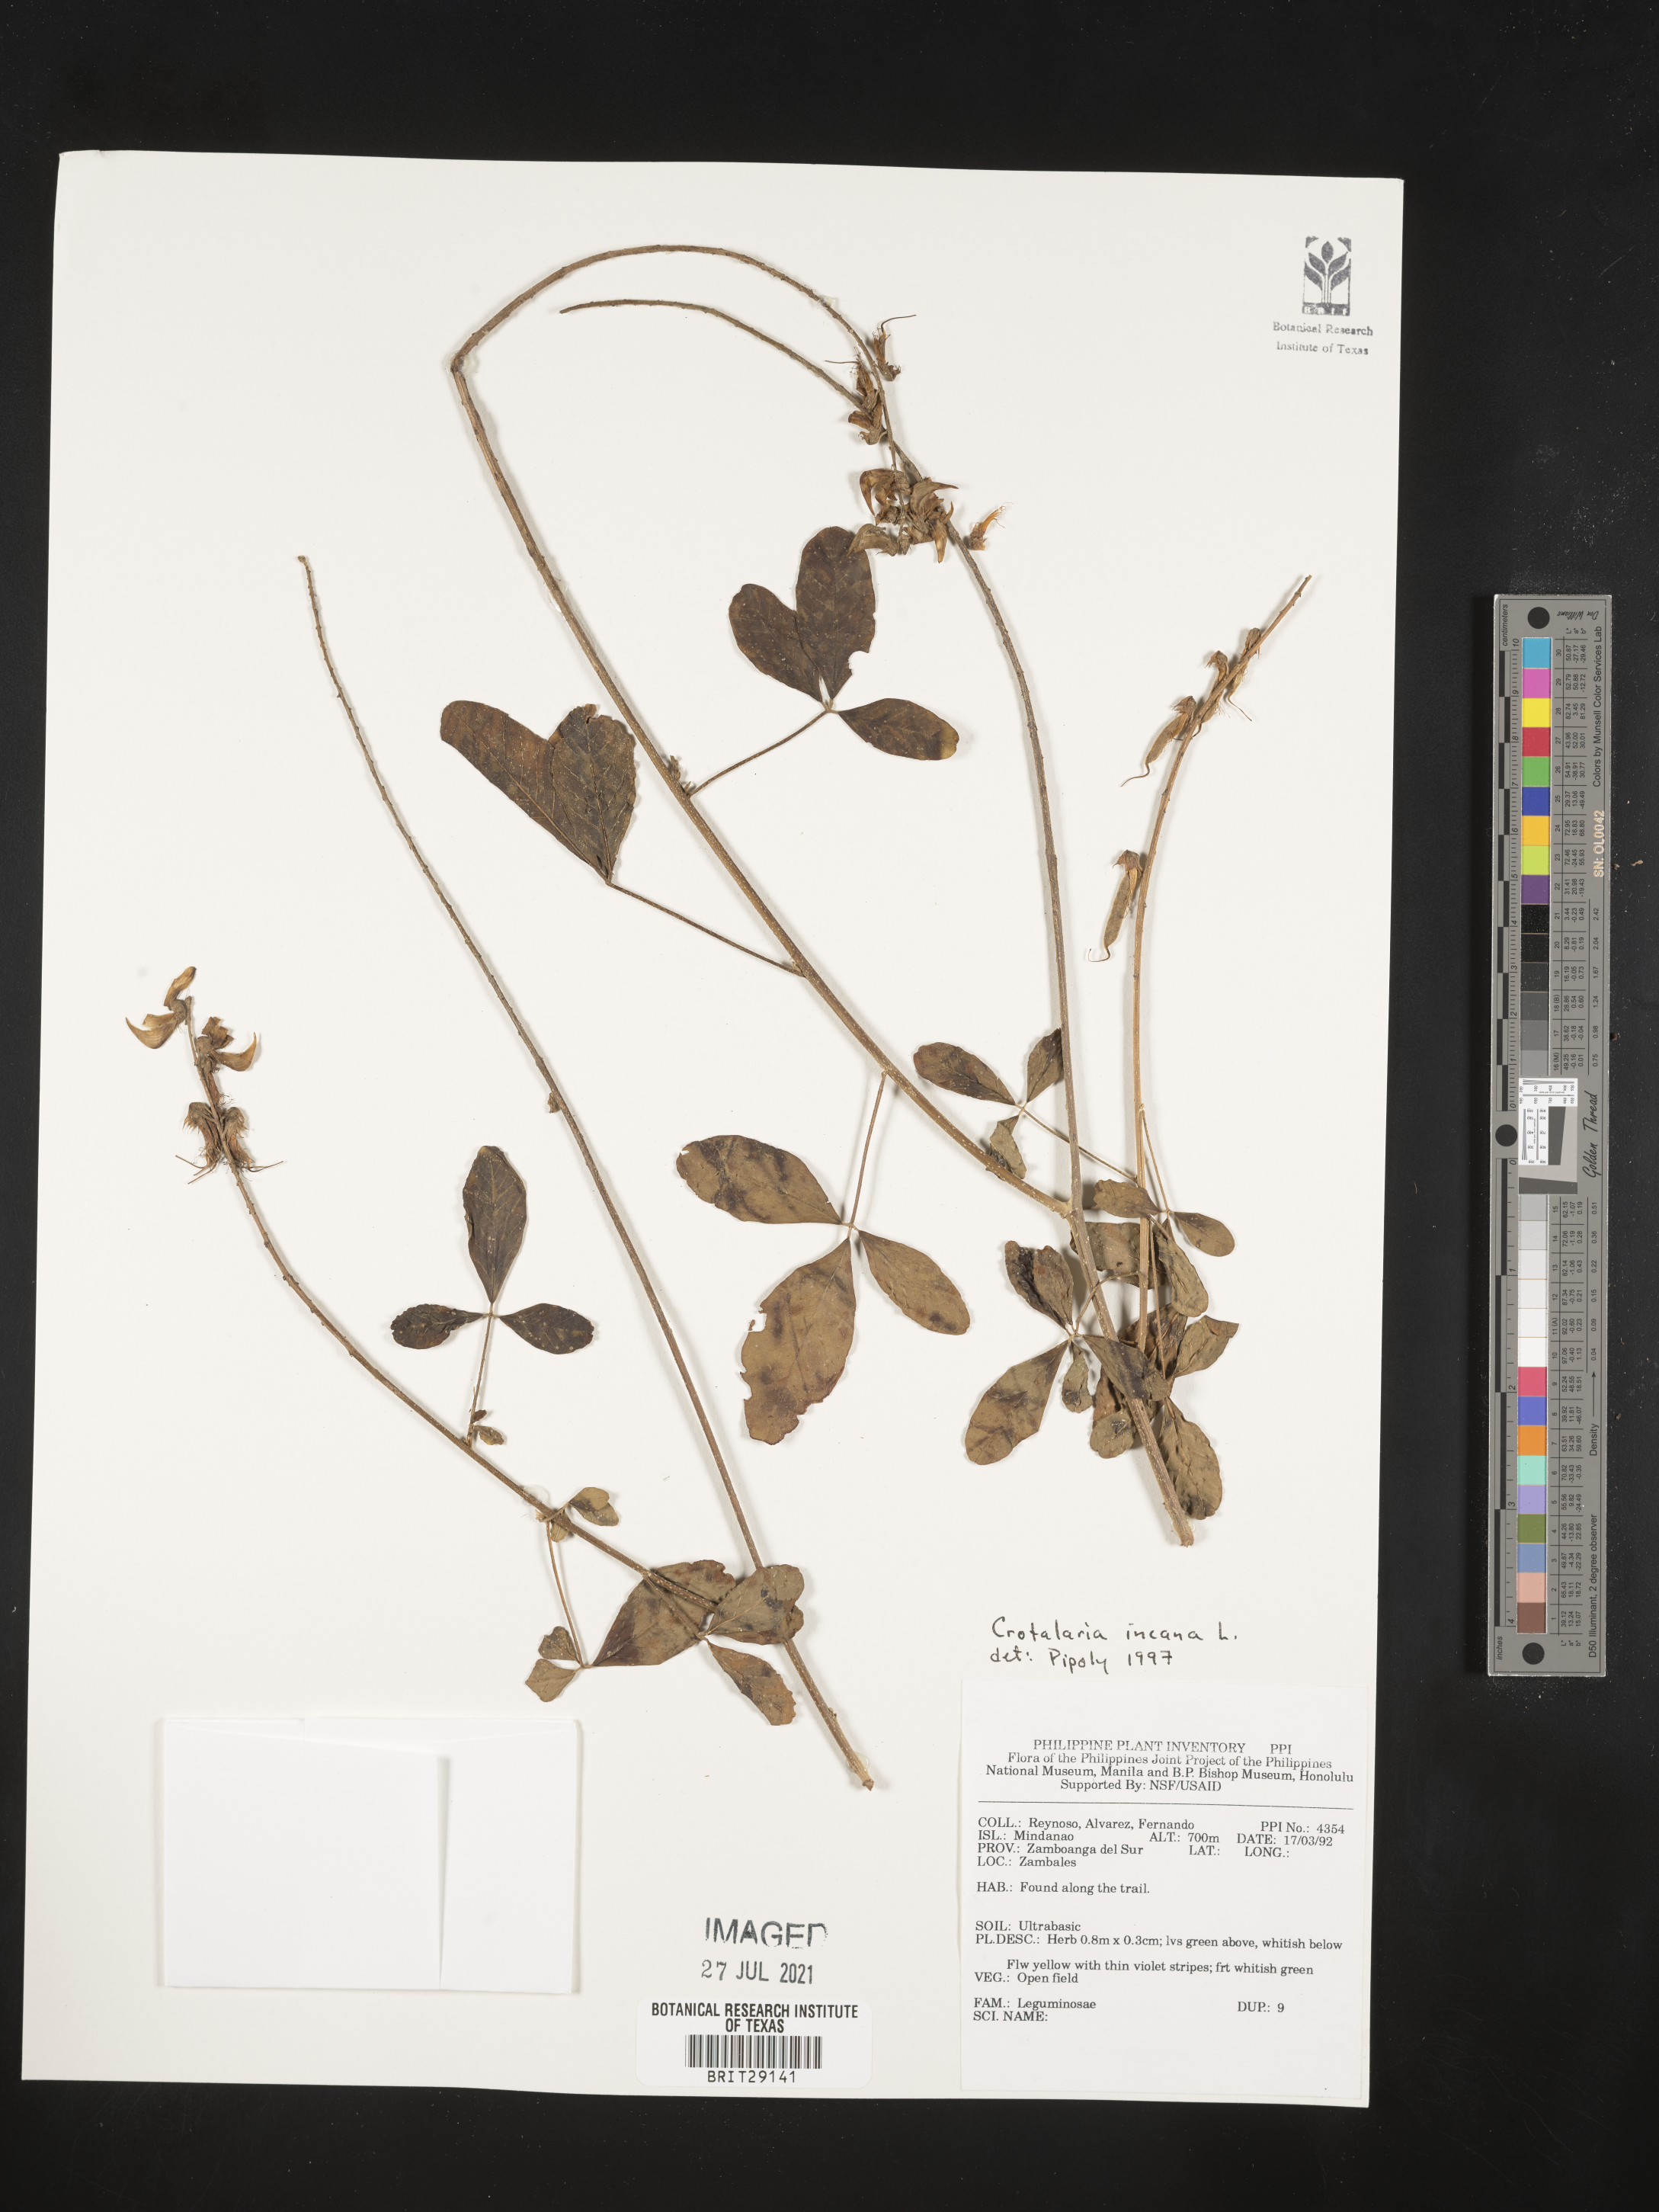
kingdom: Plantae
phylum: Tracheophyta
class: Magnoliopsida
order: Fabales
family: Fabaceae
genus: Crotalaria
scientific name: Crotalaria incana
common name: Shakeshake
